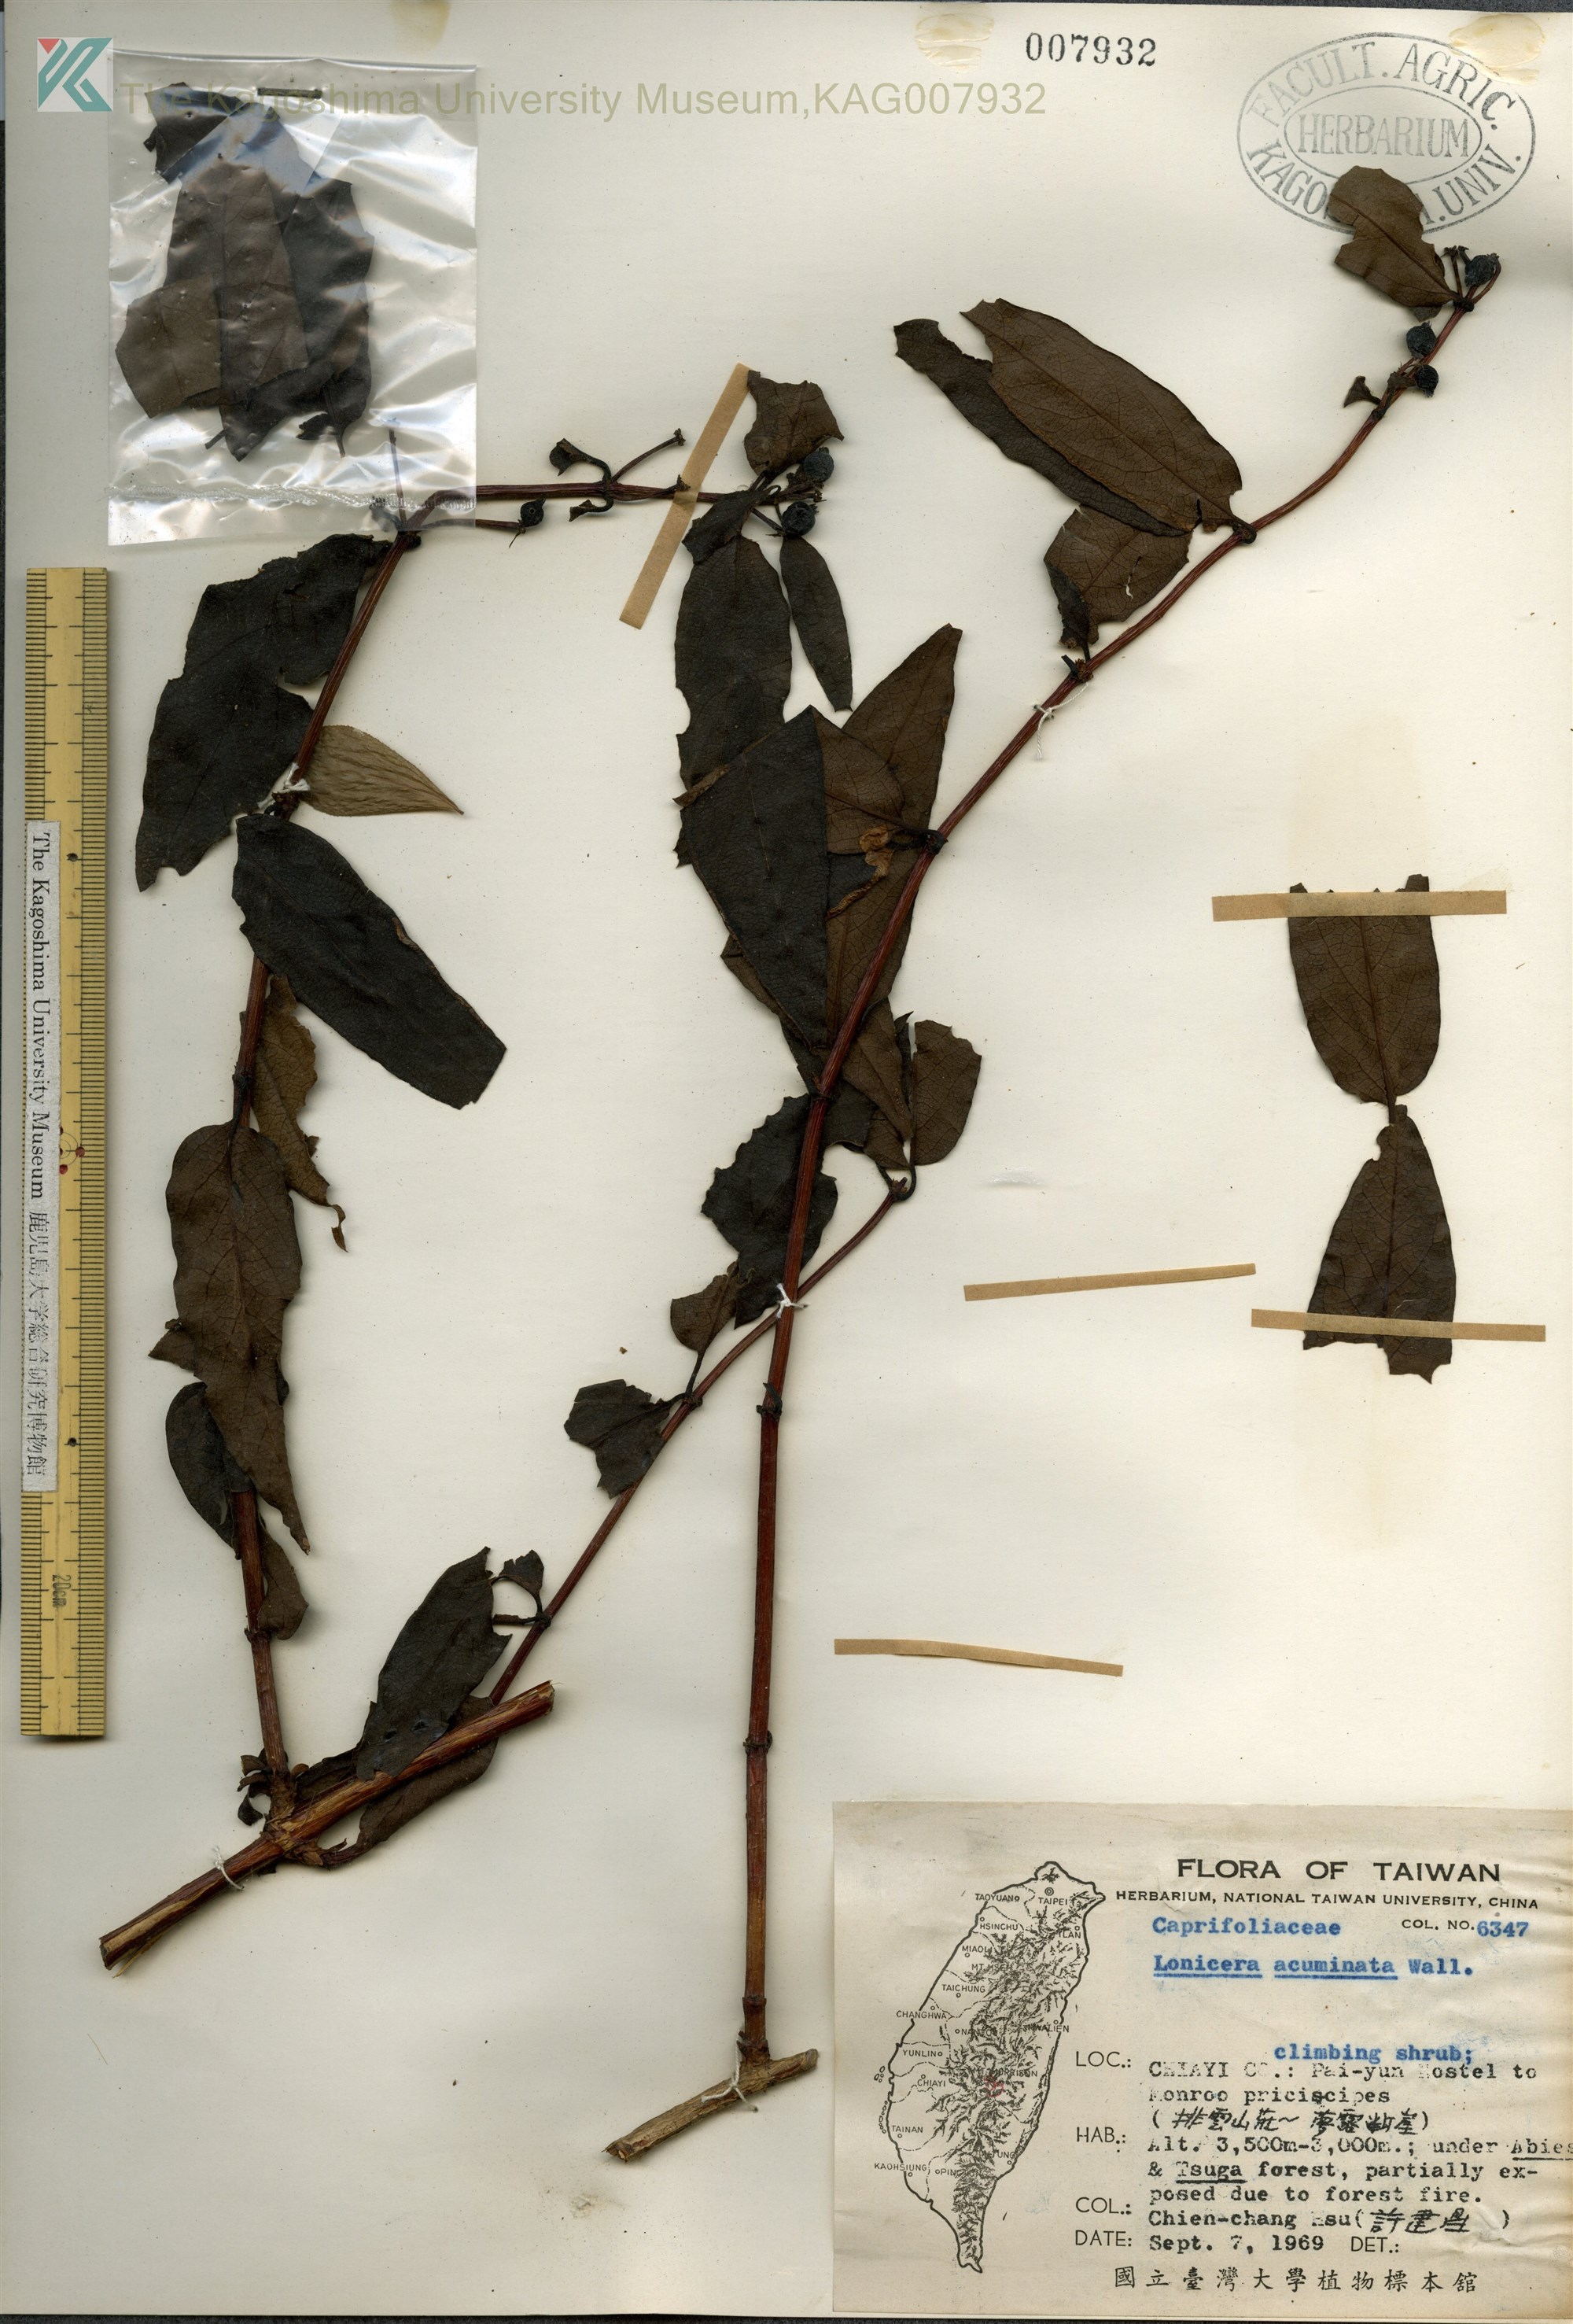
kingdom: Plantae
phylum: Tracheophyta
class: Magnoliopsida
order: Dipsacales
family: Caprifoliaceae
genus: Lonicera
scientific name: Lonicera acuminata
